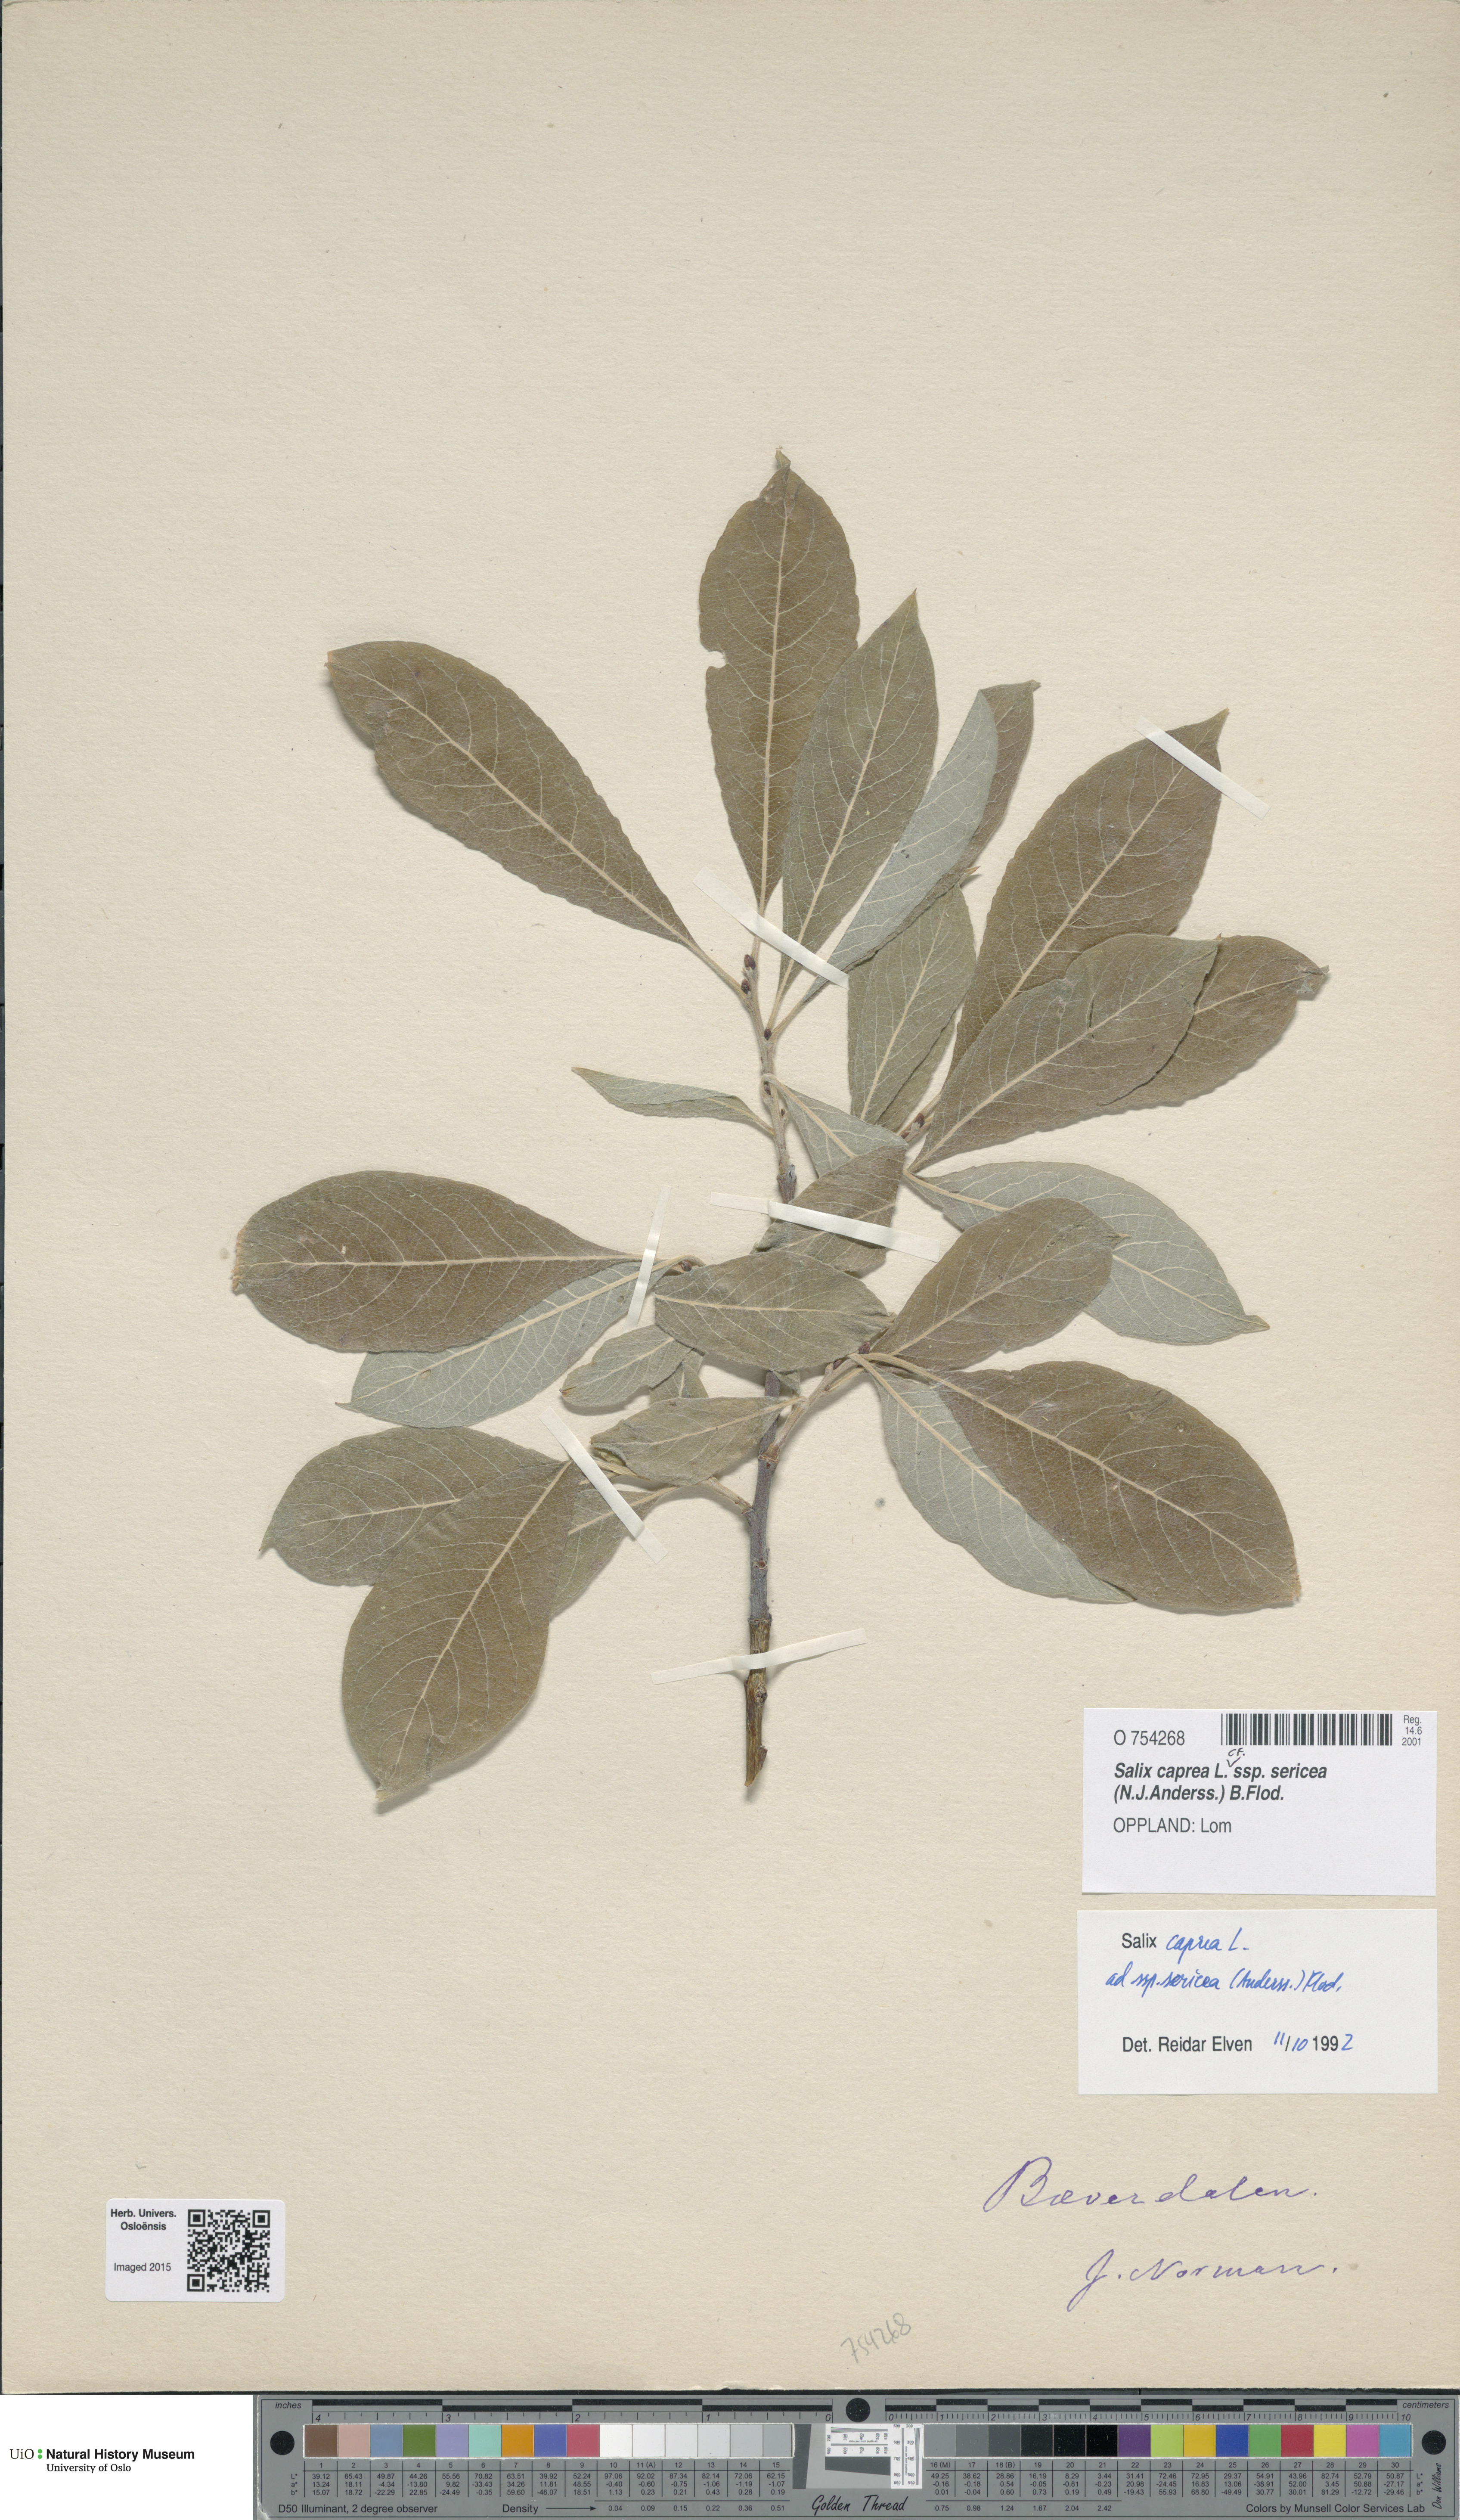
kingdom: Plantae
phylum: Tracheophyta
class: Magnoliopsida
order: Malpighiales
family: Salicaceae
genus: Salix
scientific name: Salix caprea
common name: Goat willow
